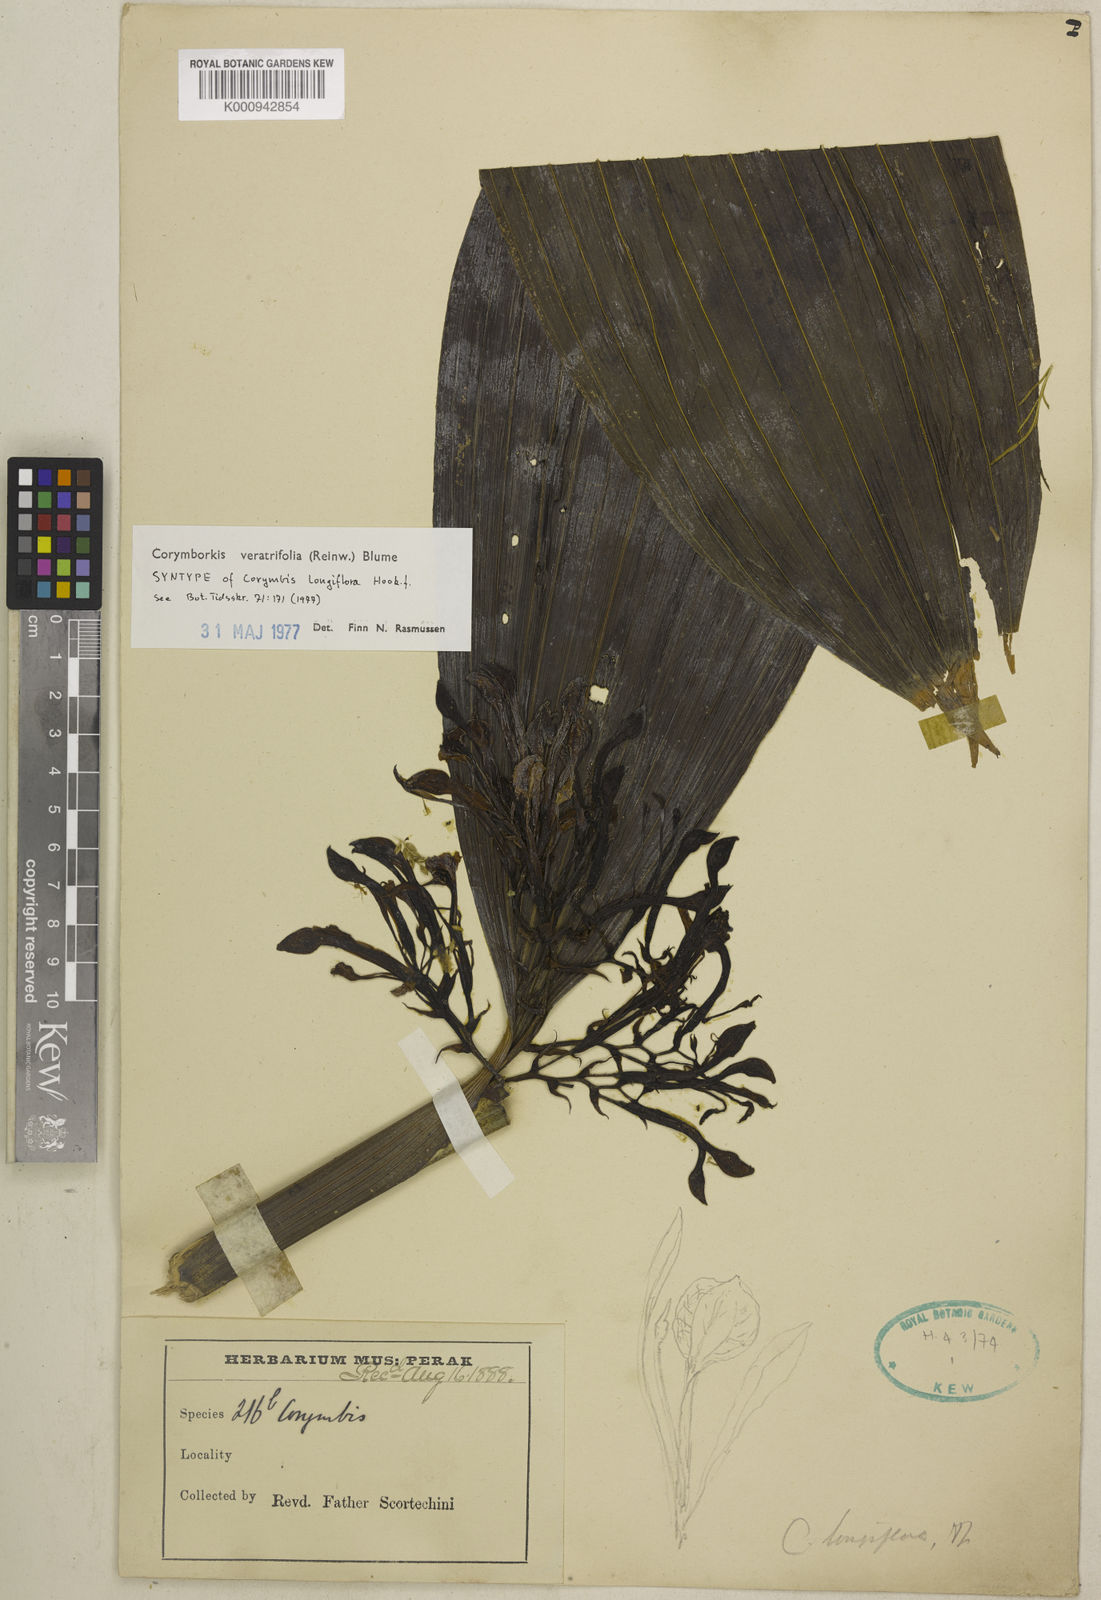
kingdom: Plantae
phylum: Tracheophyta
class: Liliopsida
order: Asparagales
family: Orchidaceae
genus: Corymborkis
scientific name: Corymborkis veratrifolia
